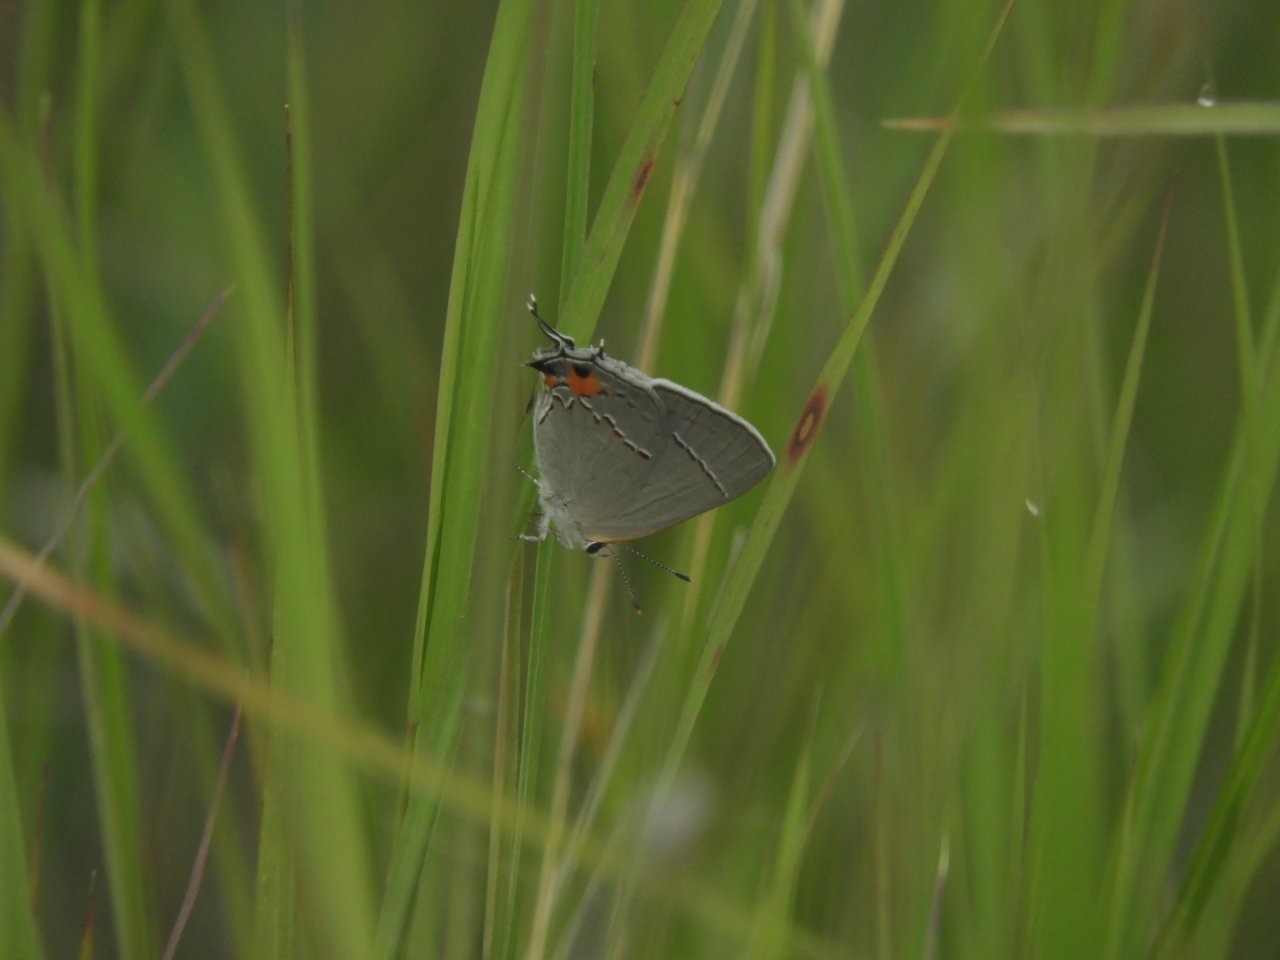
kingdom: Animalia
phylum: Arthropoda
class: Insecta
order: Lepidoptera
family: Lycaenidae
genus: Strymon
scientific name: Strymon melinus
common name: Gray Hairstreak
